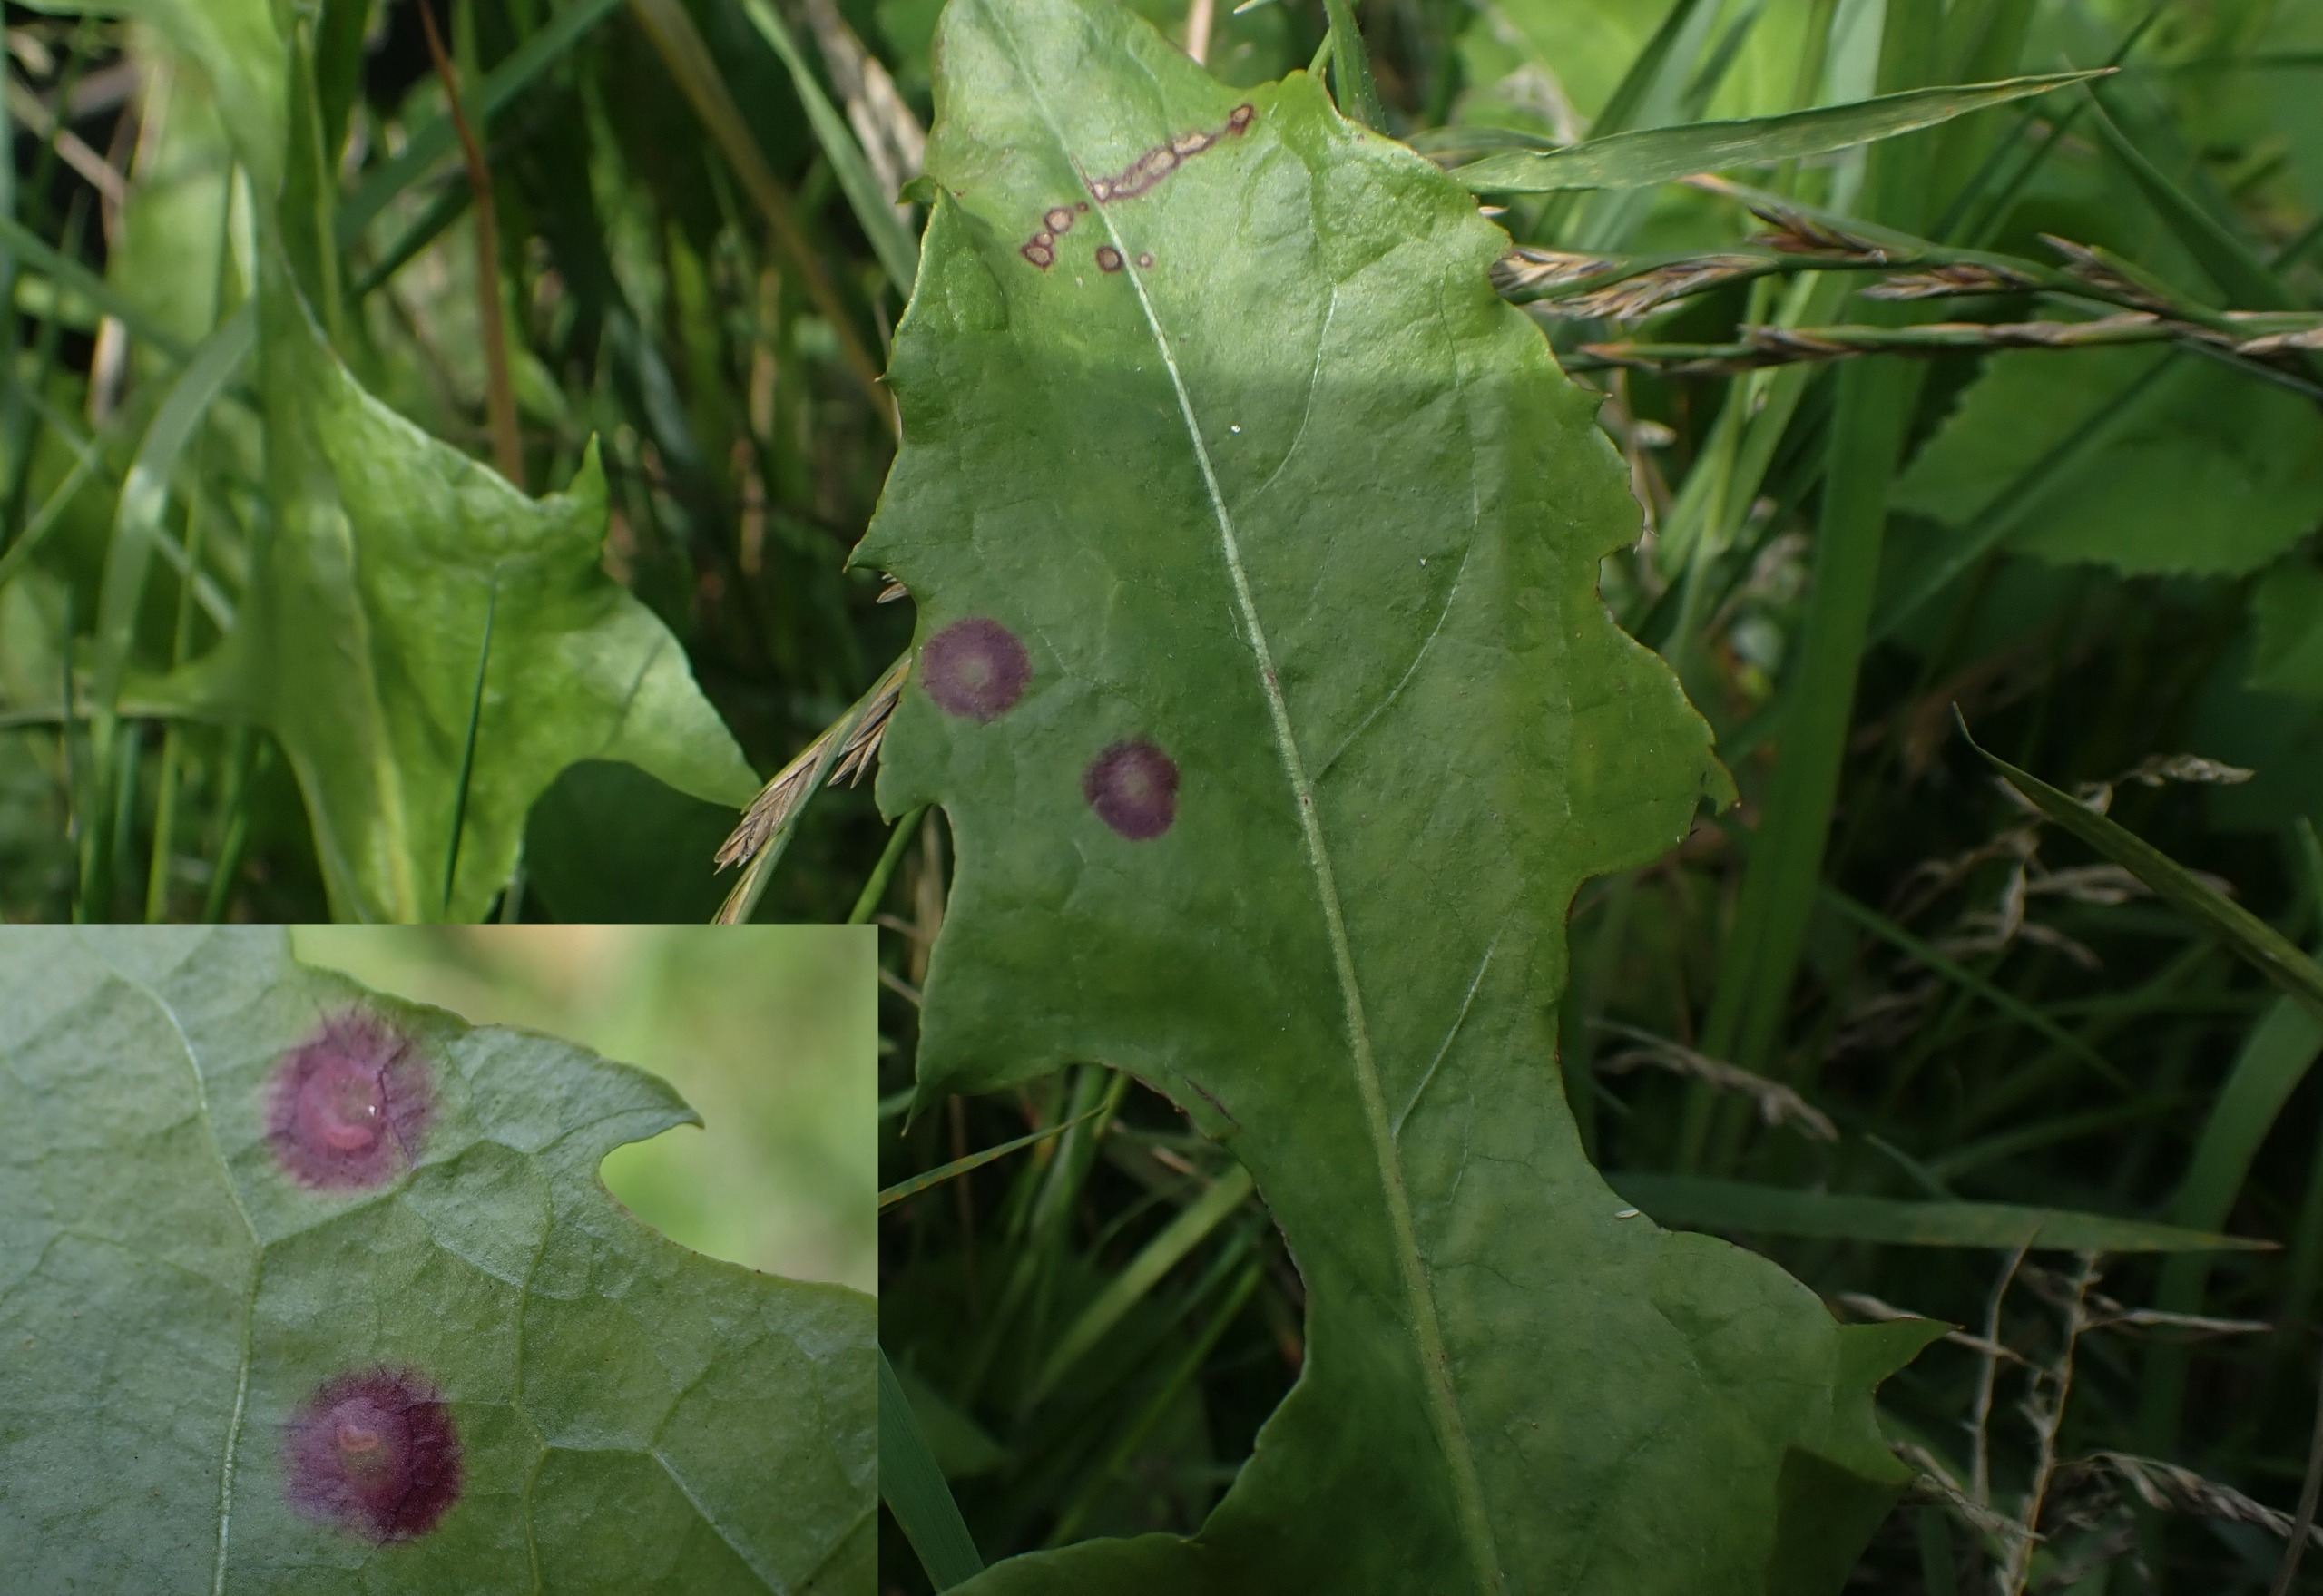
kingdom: Animalia
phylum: Arthropoda
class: Insecta
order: Diptera
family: Cecidomyiidae
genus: Cystiphora
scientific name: Cystiphora taraxaci
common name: Mælkebøttegalmyg
